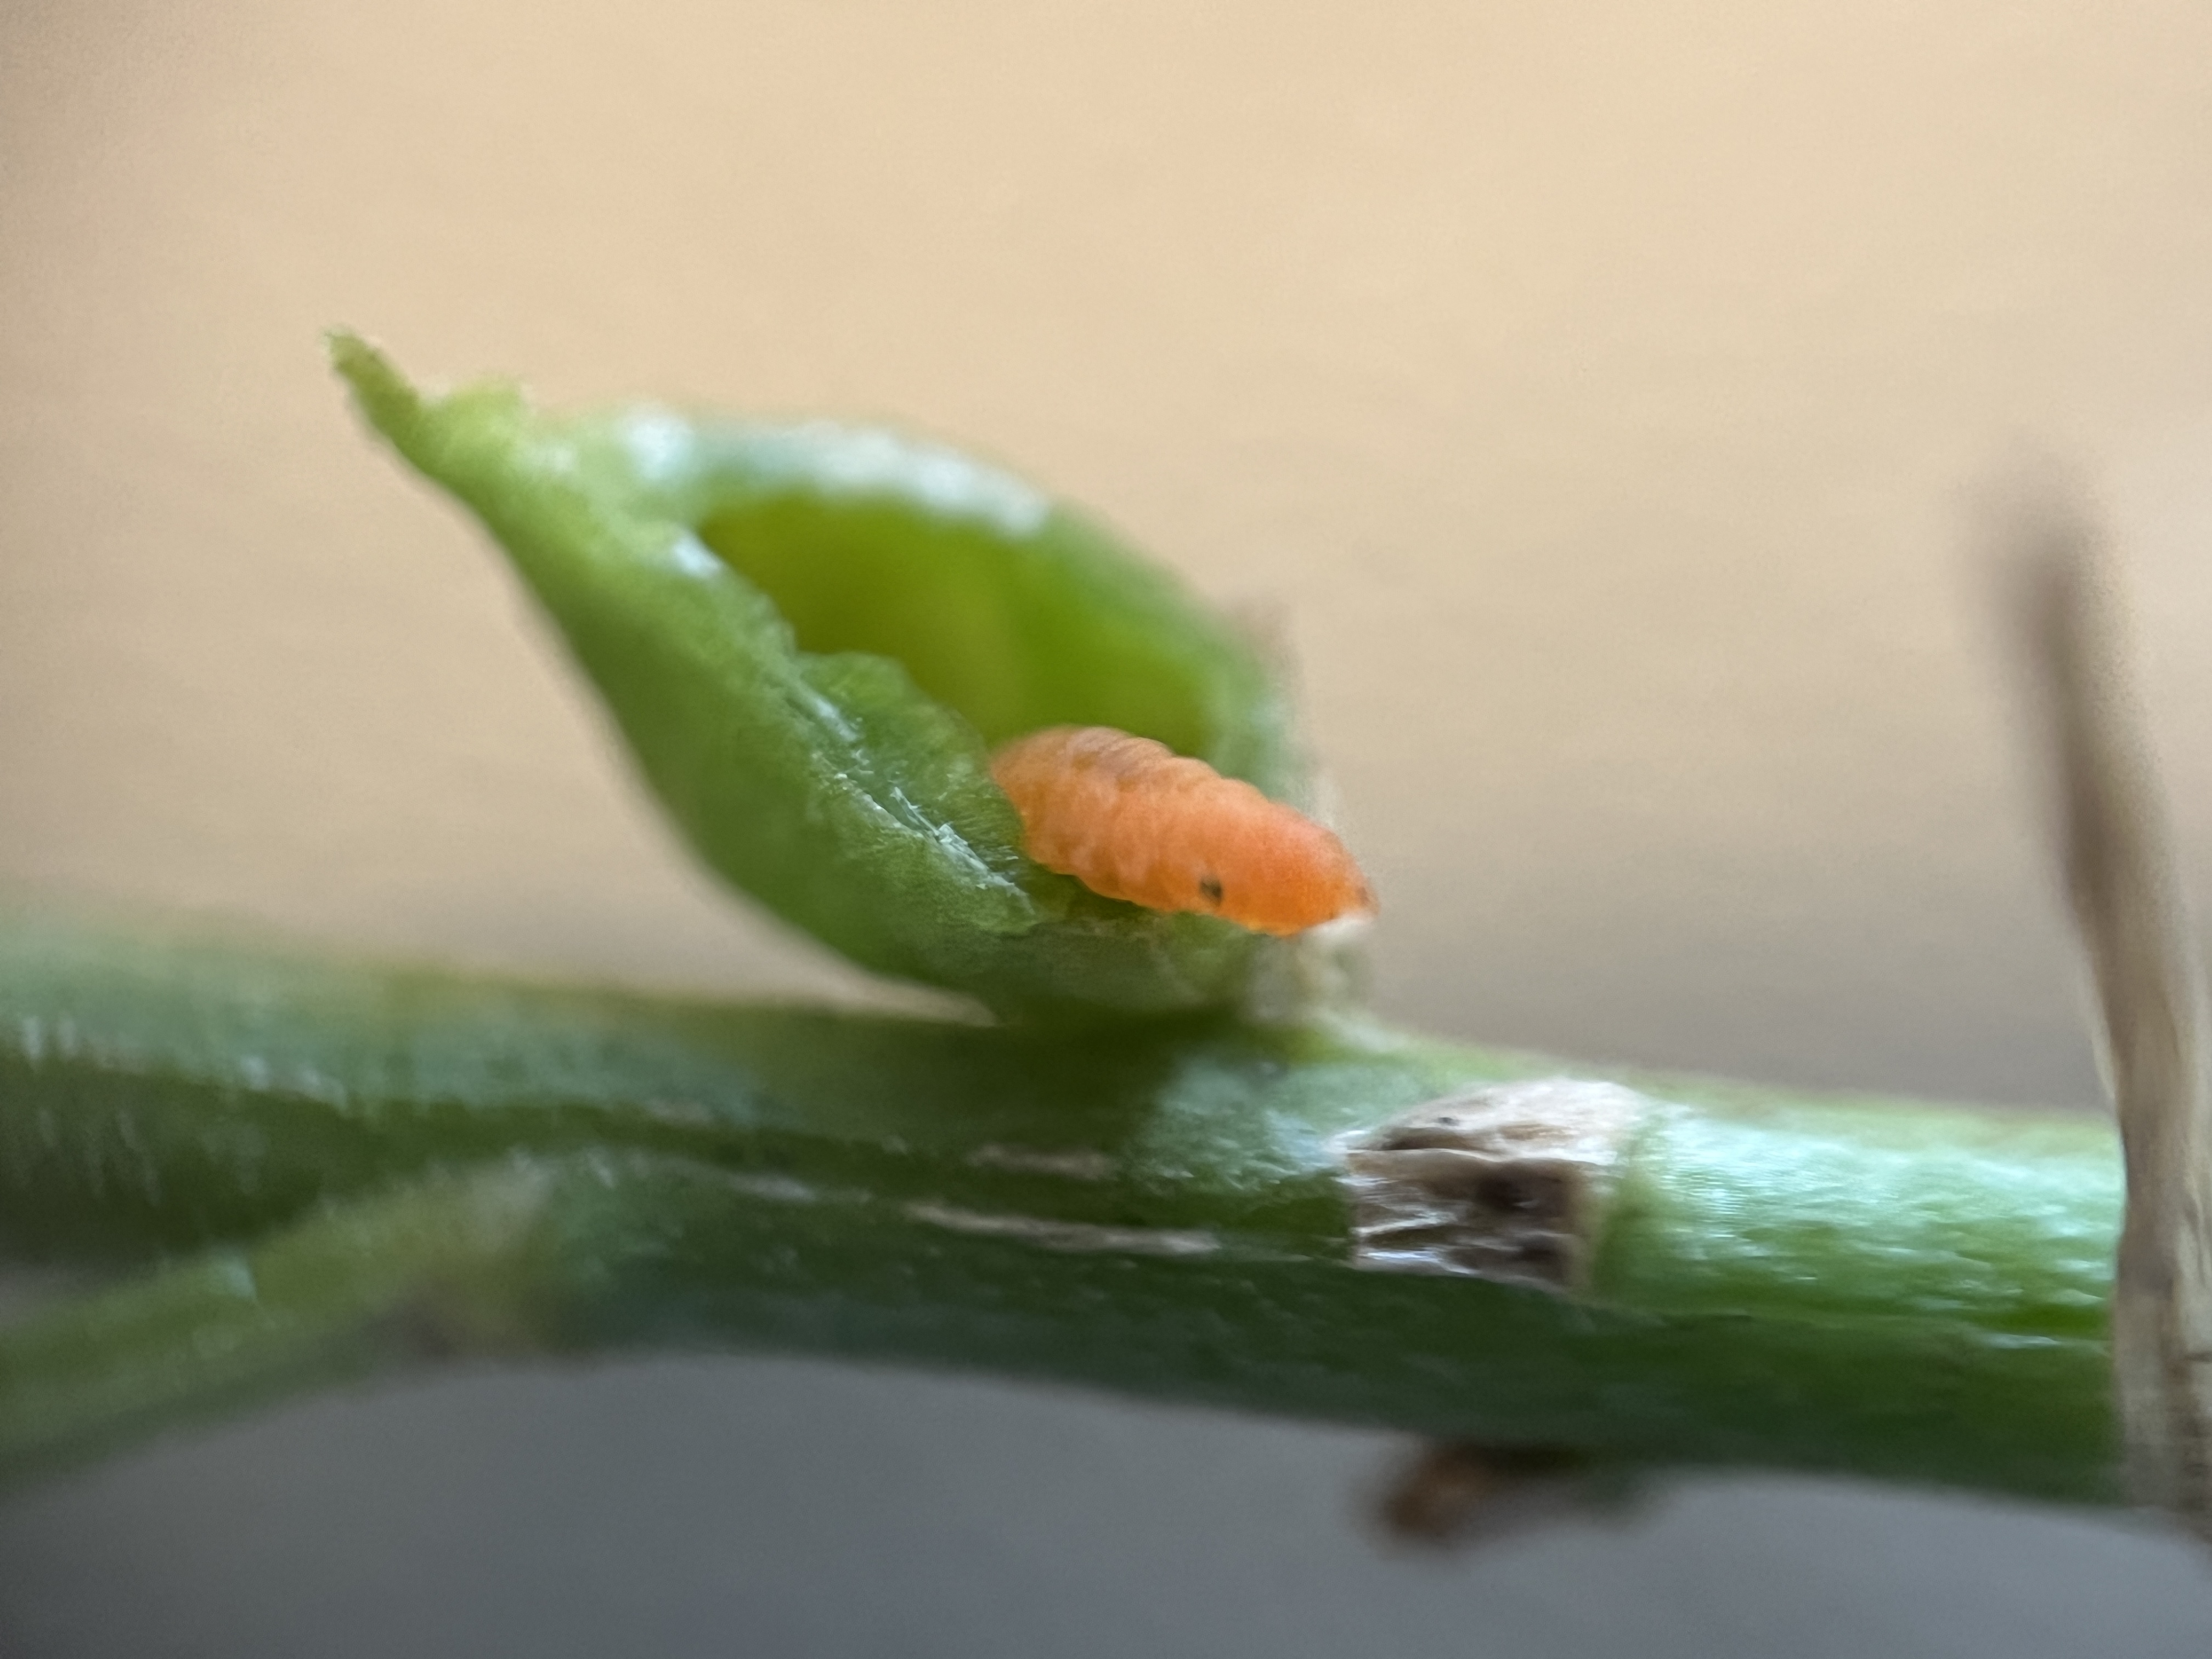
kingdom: Animalia
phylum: Arthropoda
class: Insecta
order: Diptera
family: Cecidomyiidae
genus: Geocrypta
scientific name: Geocrypta campanulae
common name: Klokkejordgalmyg
